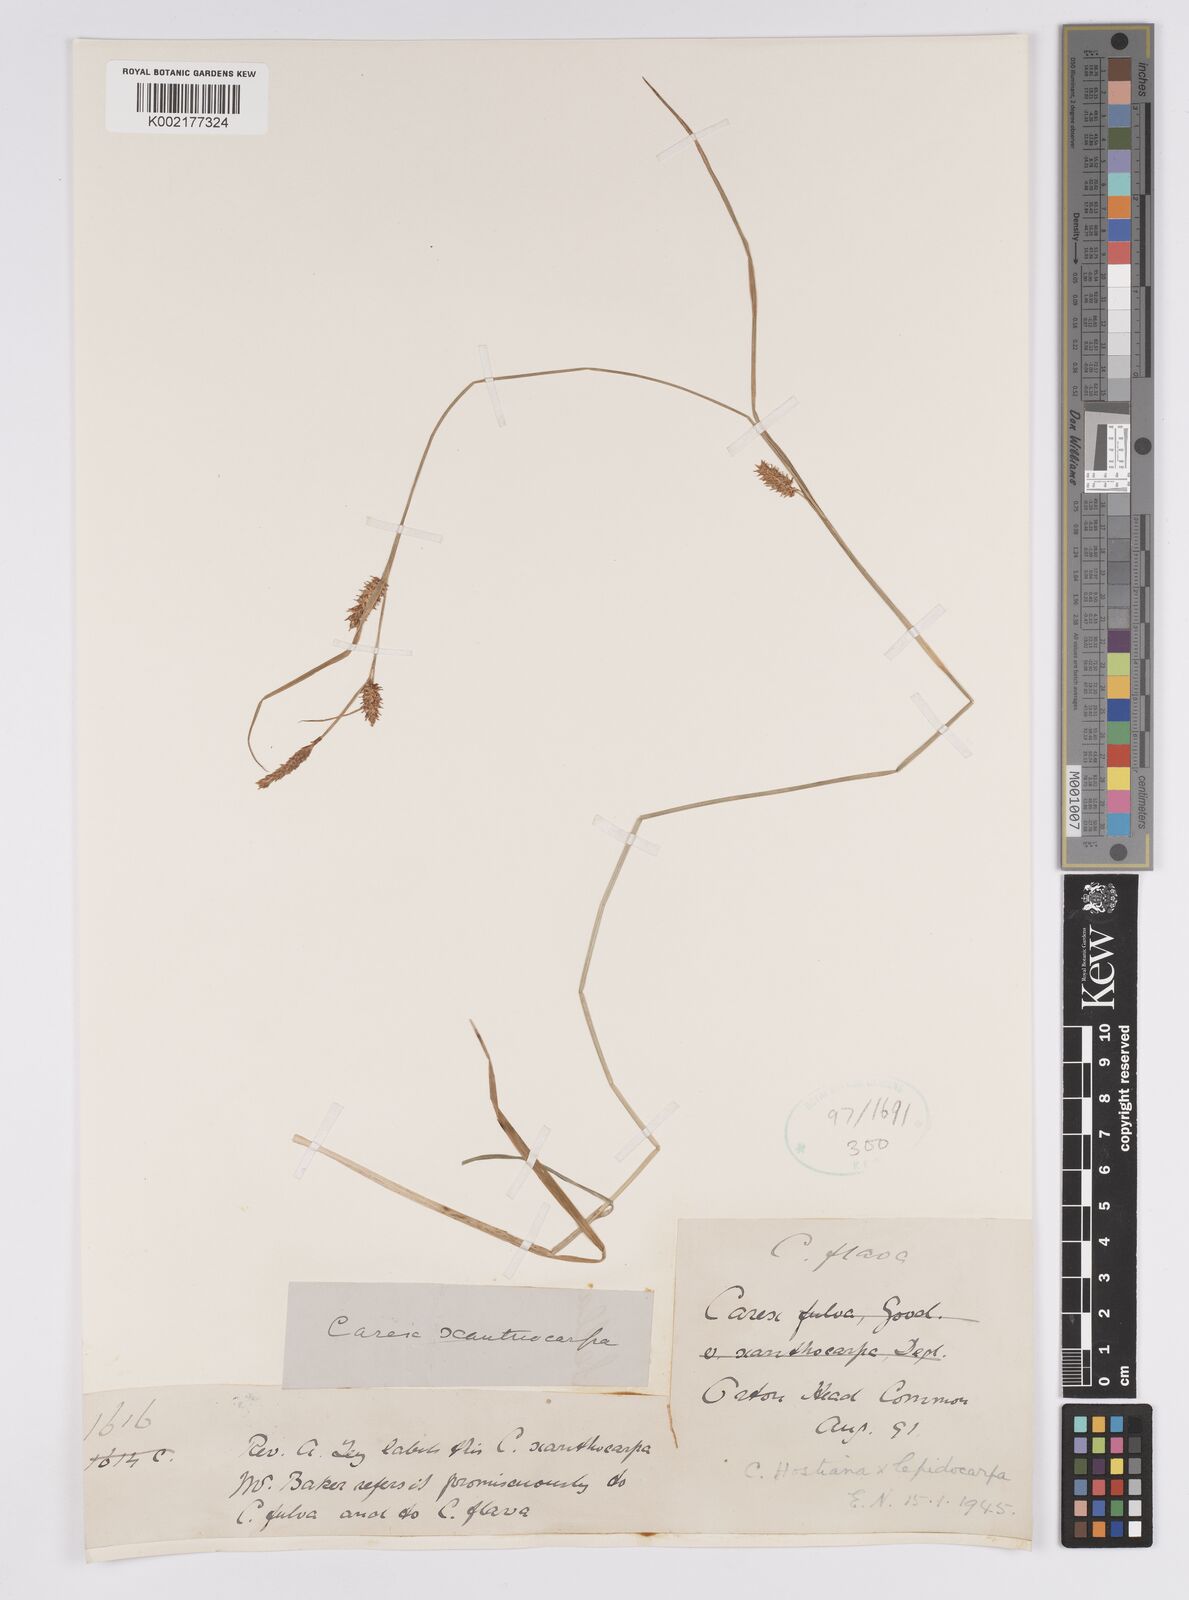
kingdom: Plantae
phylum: Tracheophyta
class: Liliopsida
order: Poales
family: Cyperaceae
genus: Carex
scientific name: Carex hostiana
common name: Tawny sedge
